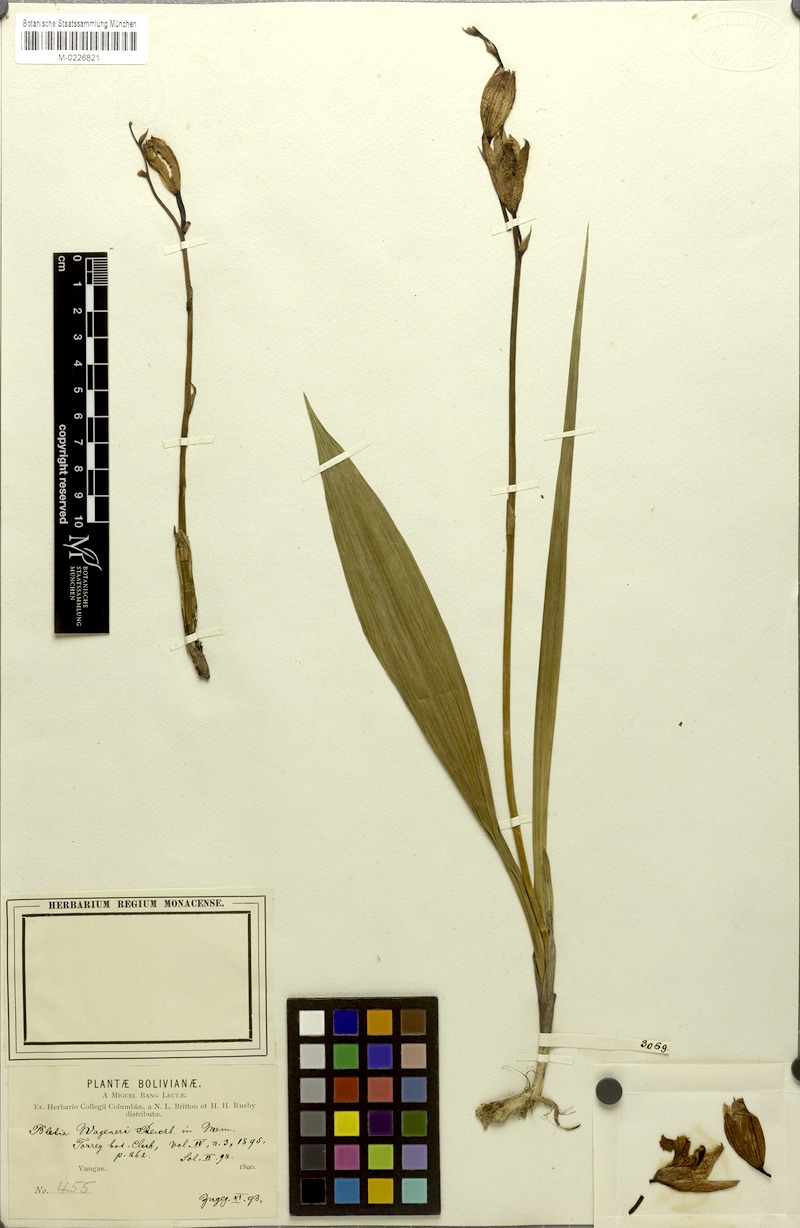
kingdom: Plantae
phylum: Tracheophyta
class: Liliopsida
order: Asparagales
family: Orchidaceae
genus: Bletia
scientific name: Bletia campanulata
